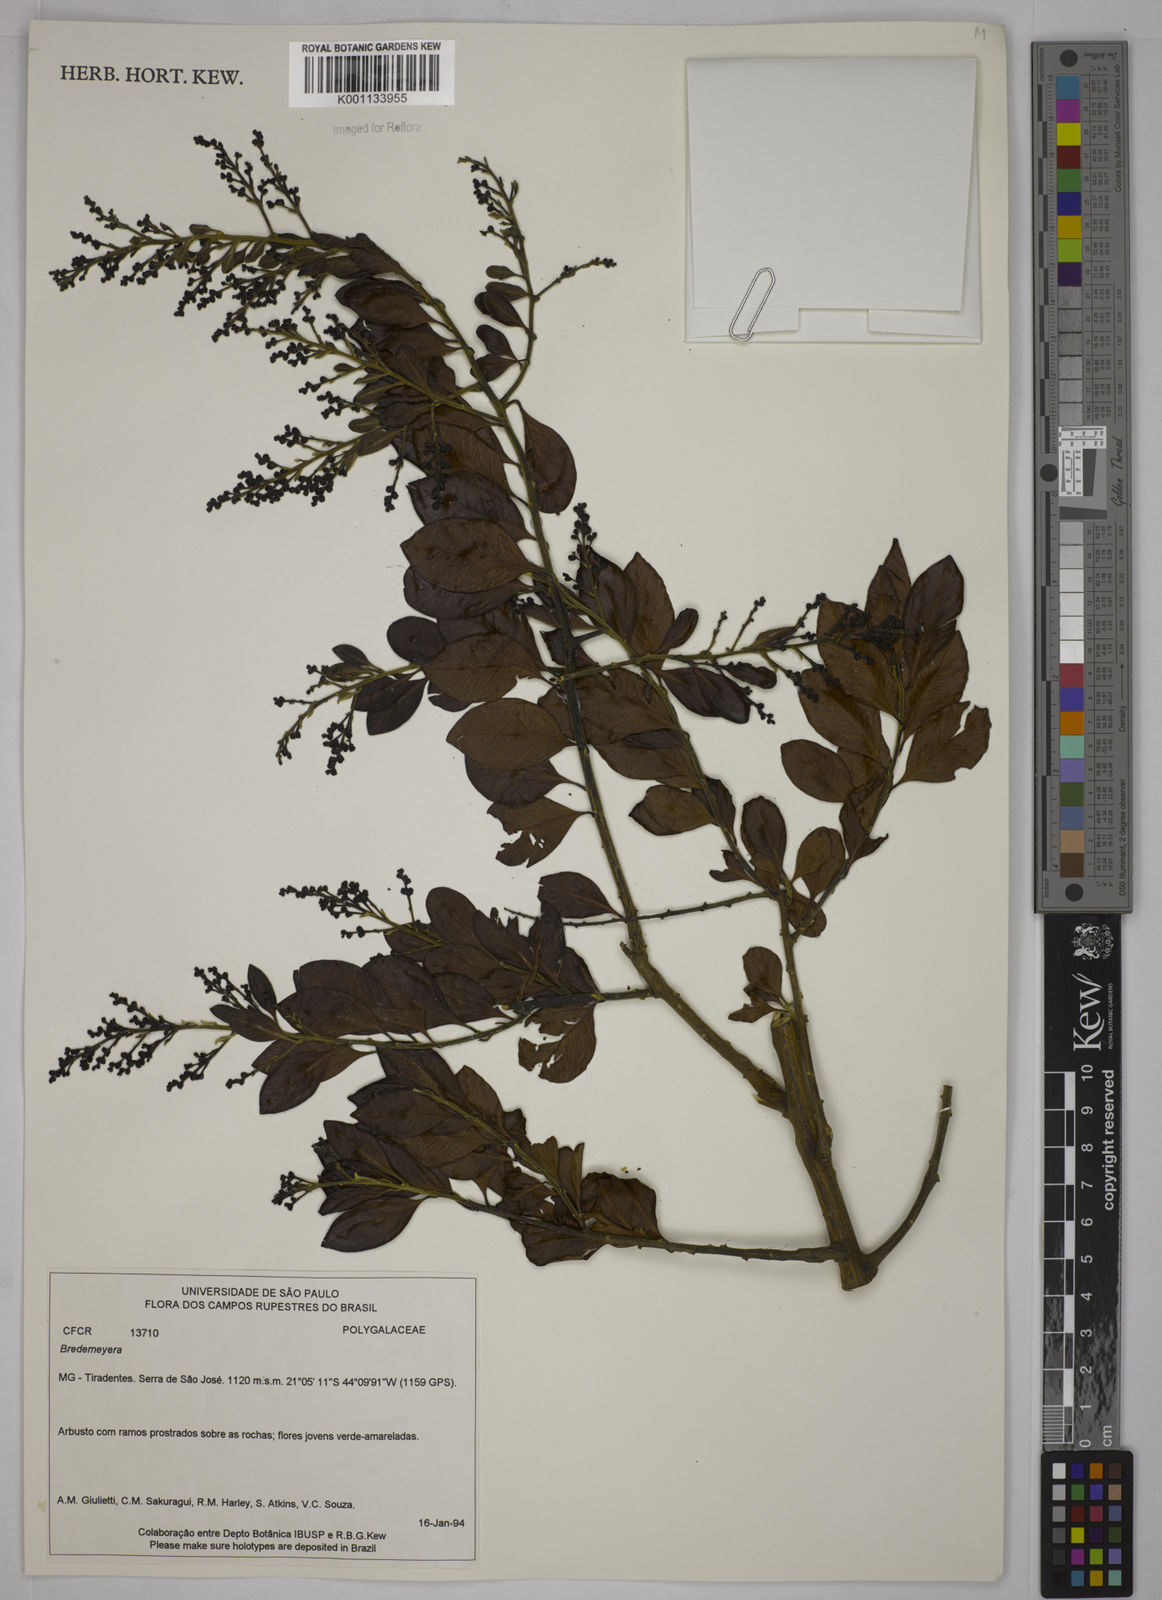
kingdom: Plantae
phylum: Tracheophyta
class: Magnoliopsida
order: Fabales
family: Polygalaceae
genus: Bredemeyera
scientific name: Bredemeyera
